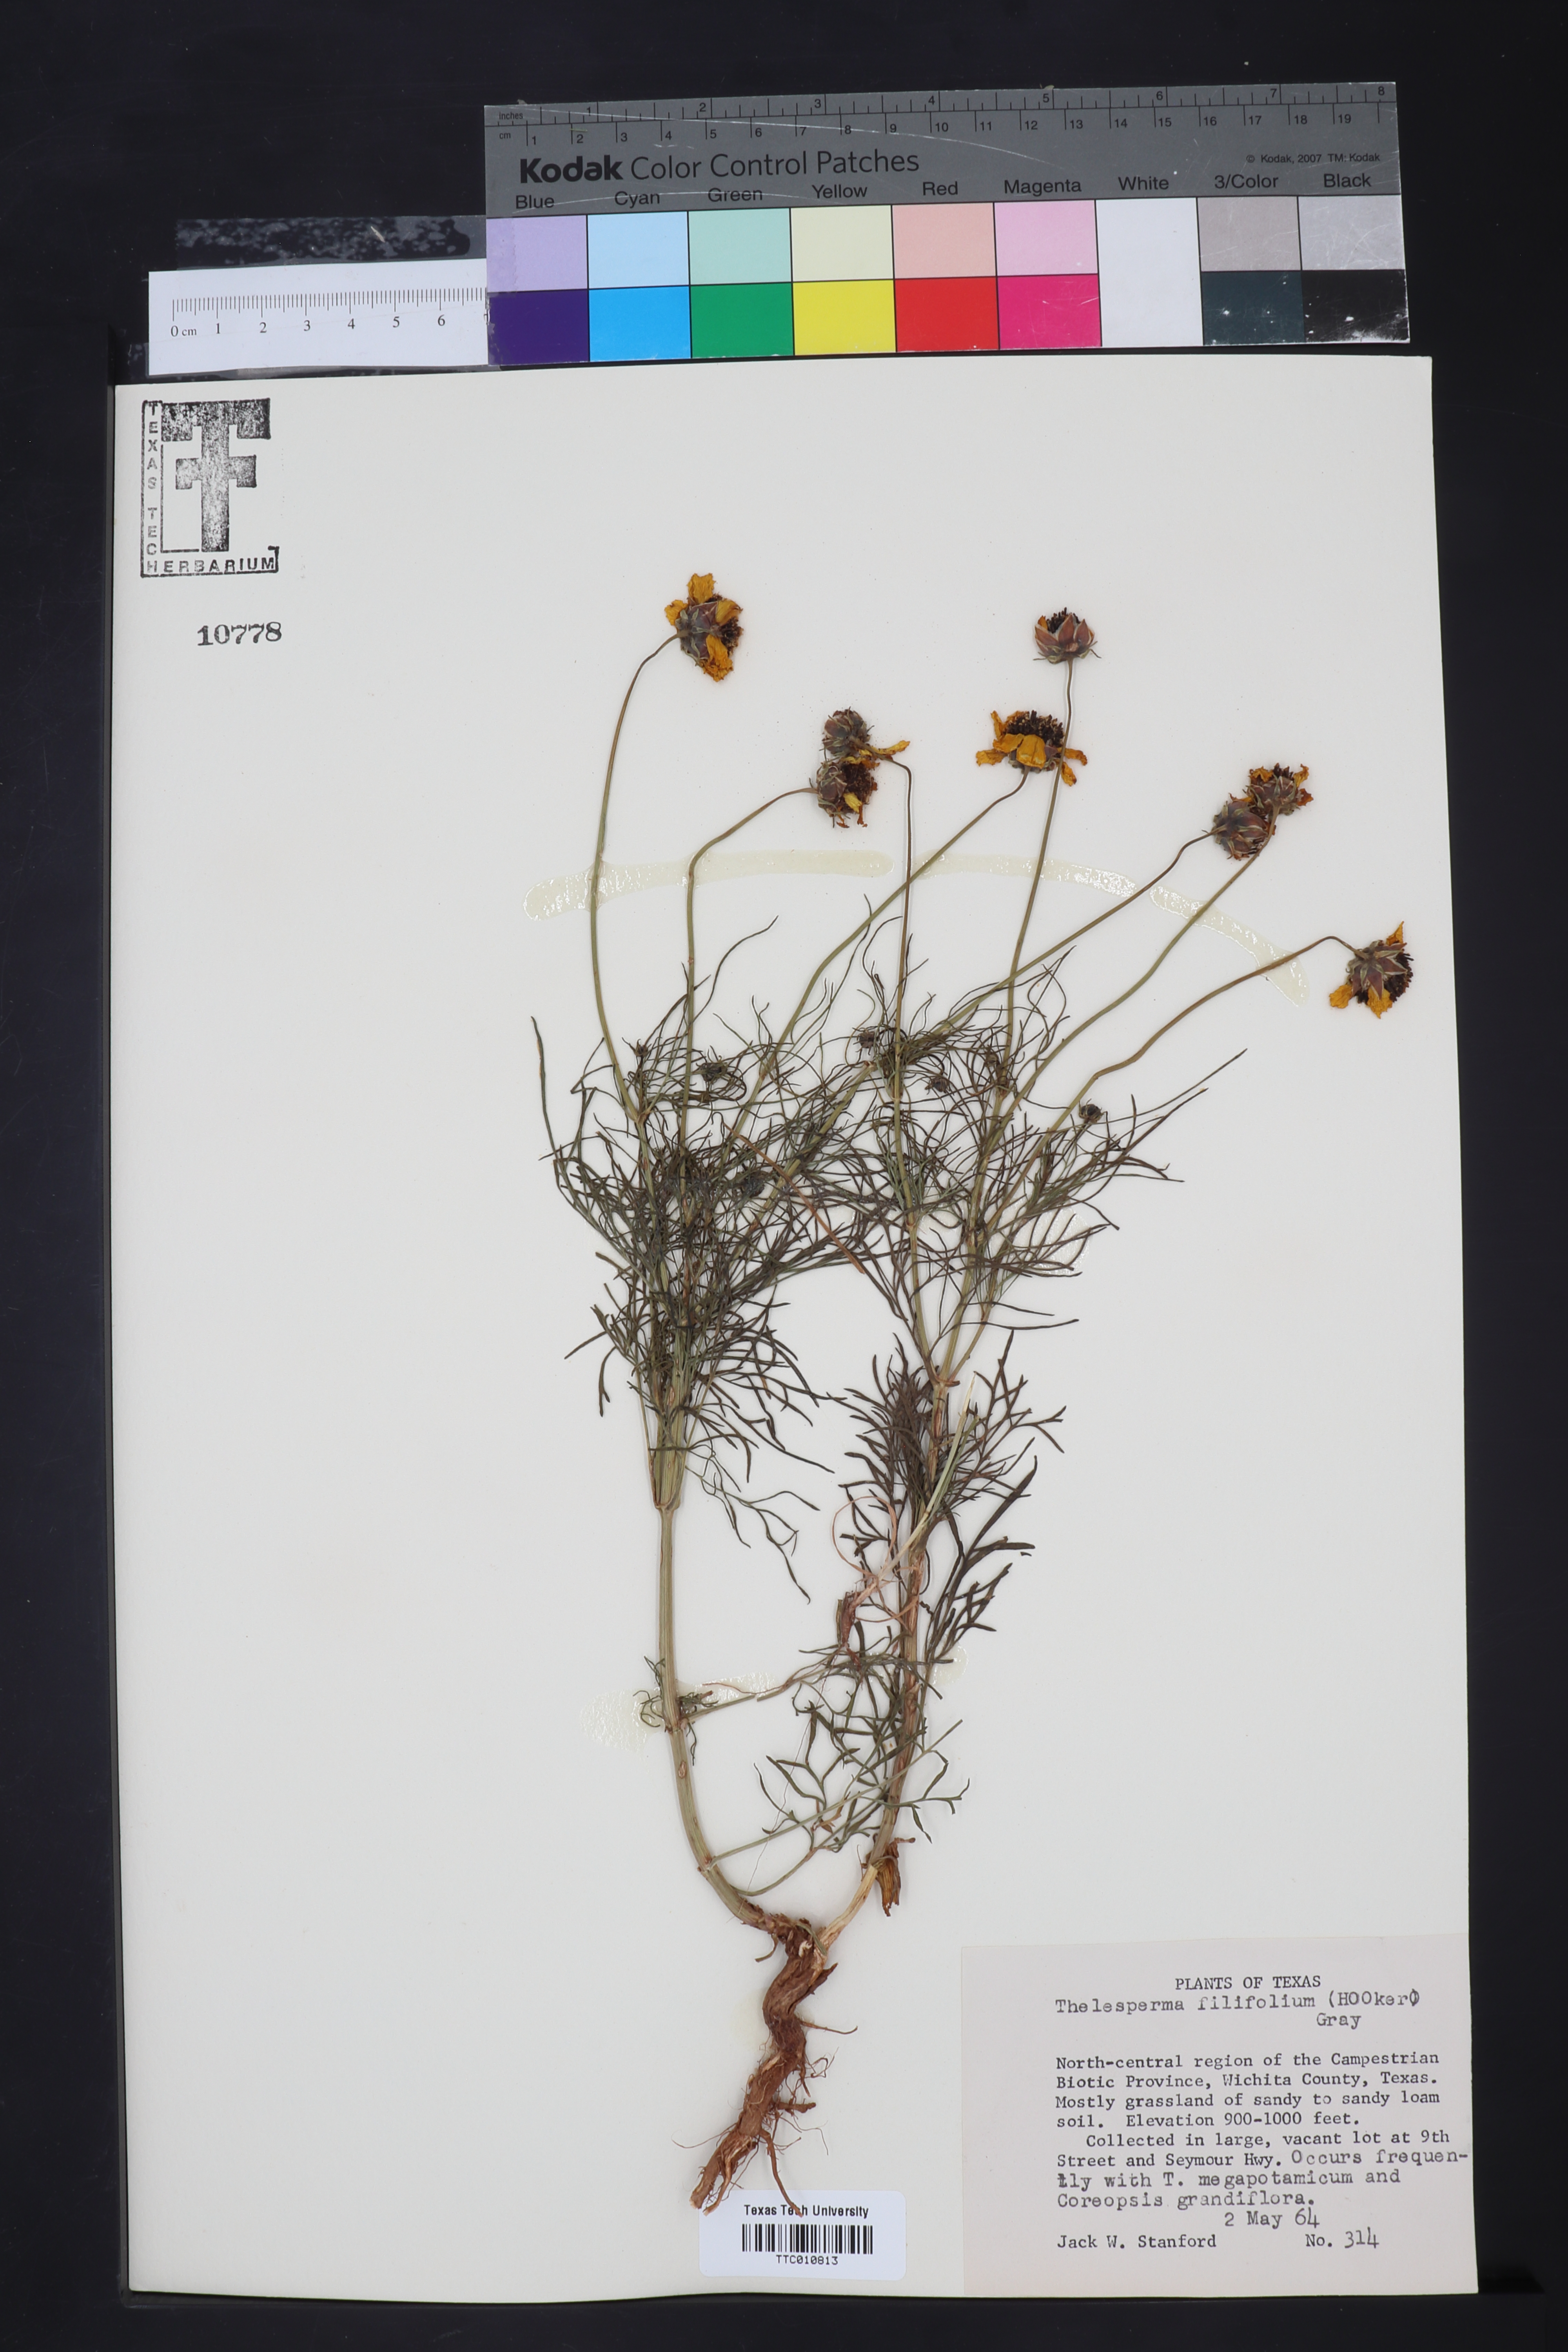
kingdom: Plantae
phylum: Tracheophyta
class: Magnoliopsida
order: Asterales
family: Asteraceae
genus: Thelesperma
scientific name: Thelesperma filifolium
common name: Stiff greenthread
